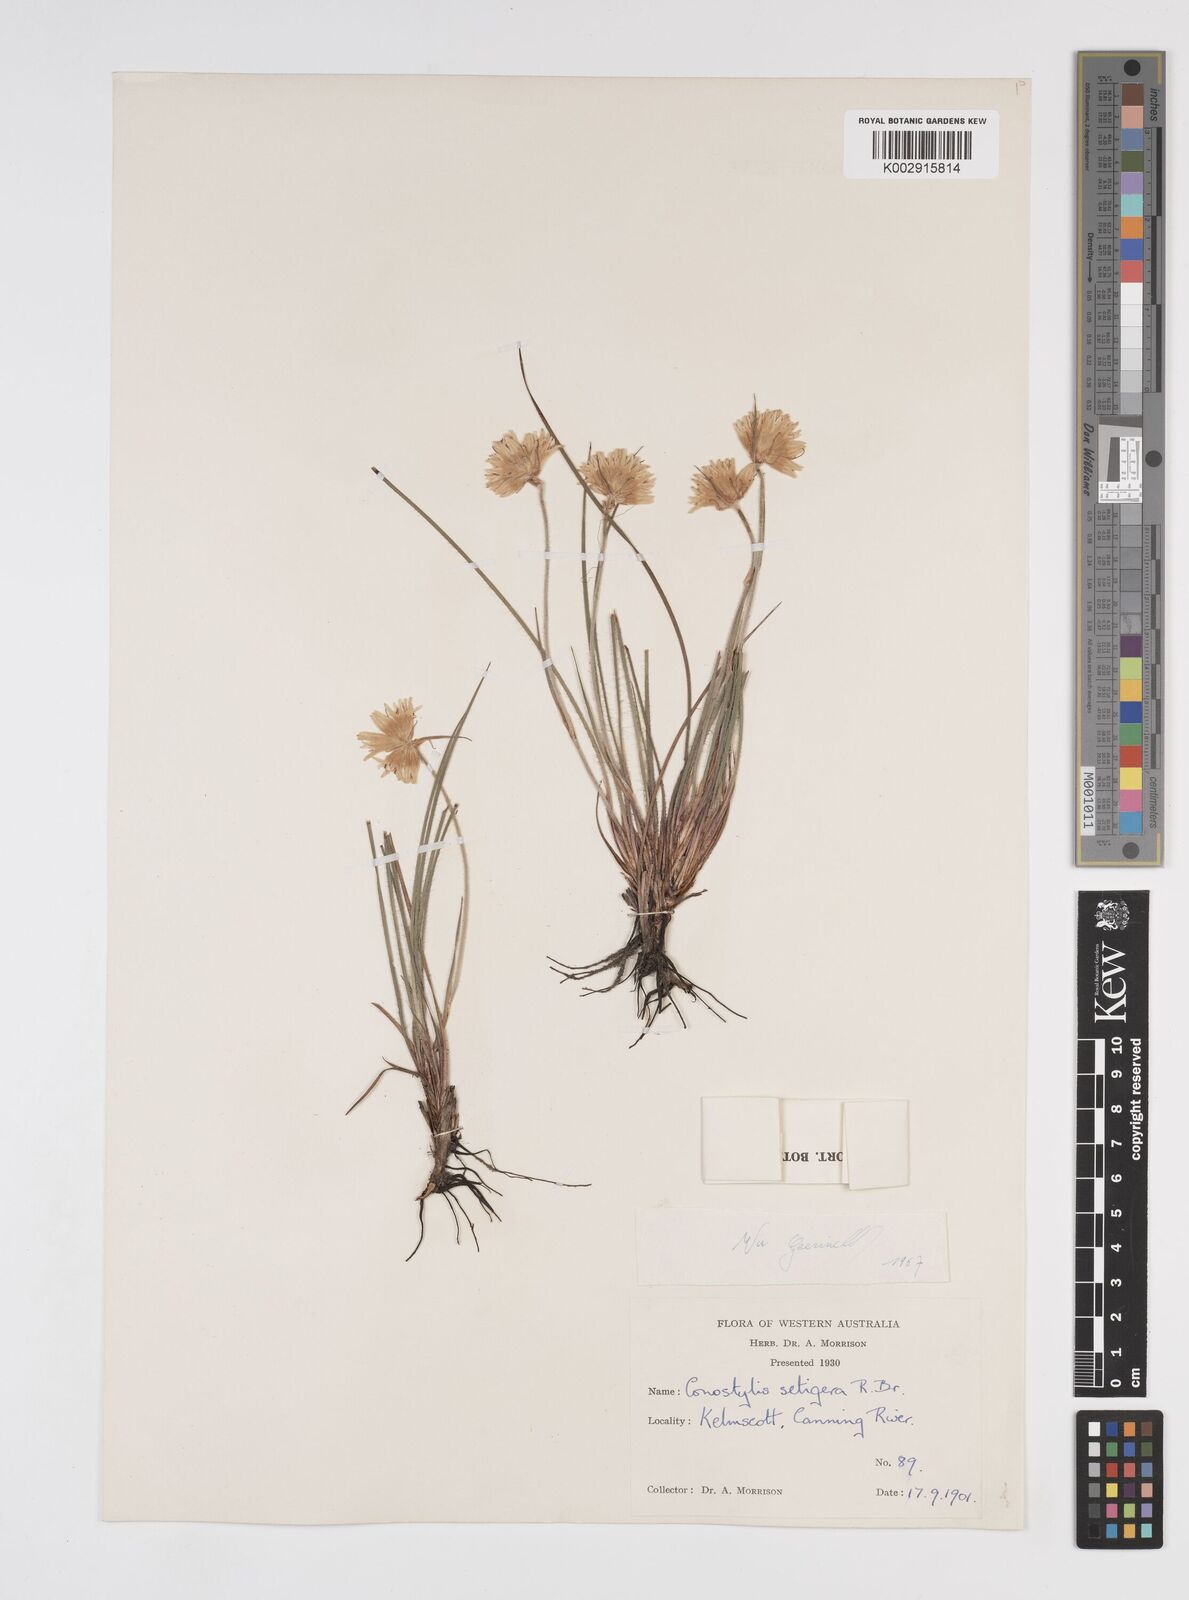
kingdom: Plantae
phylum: Tracheophyta
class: Liliopsida
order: Commelinales
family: Haemodoraceae
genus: Conostylis
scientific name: Conostylis setigera
